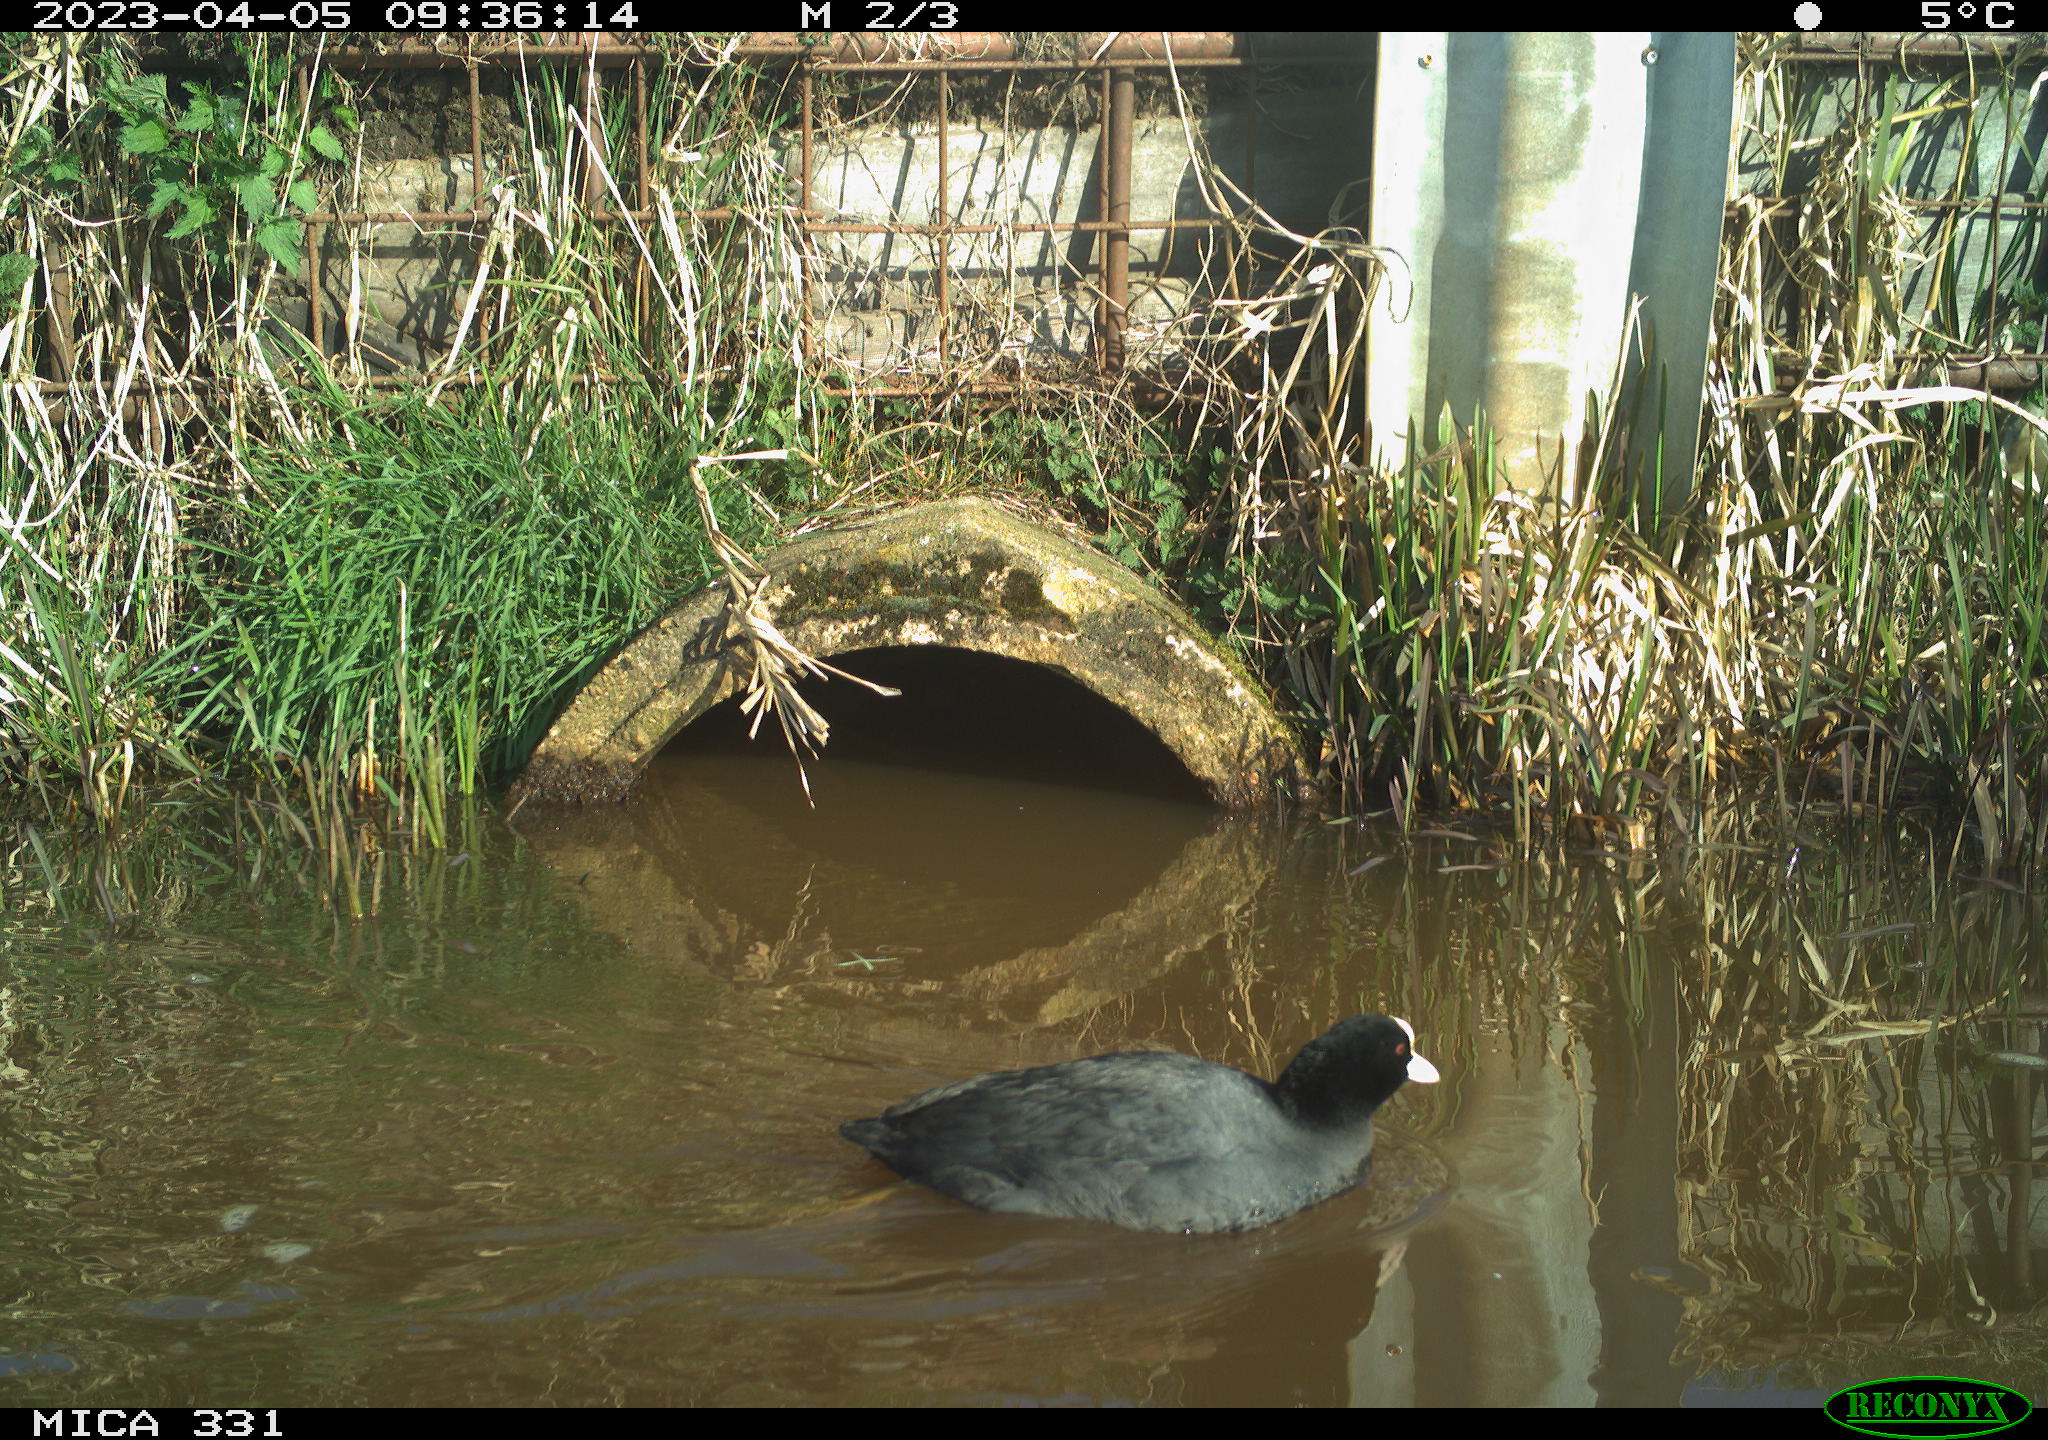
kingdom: Animalia
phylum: Chordata
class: Aves
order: Gruiformes
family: Rallidae
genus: Fulica
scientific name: Fulica atra
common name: Eurasian coot
